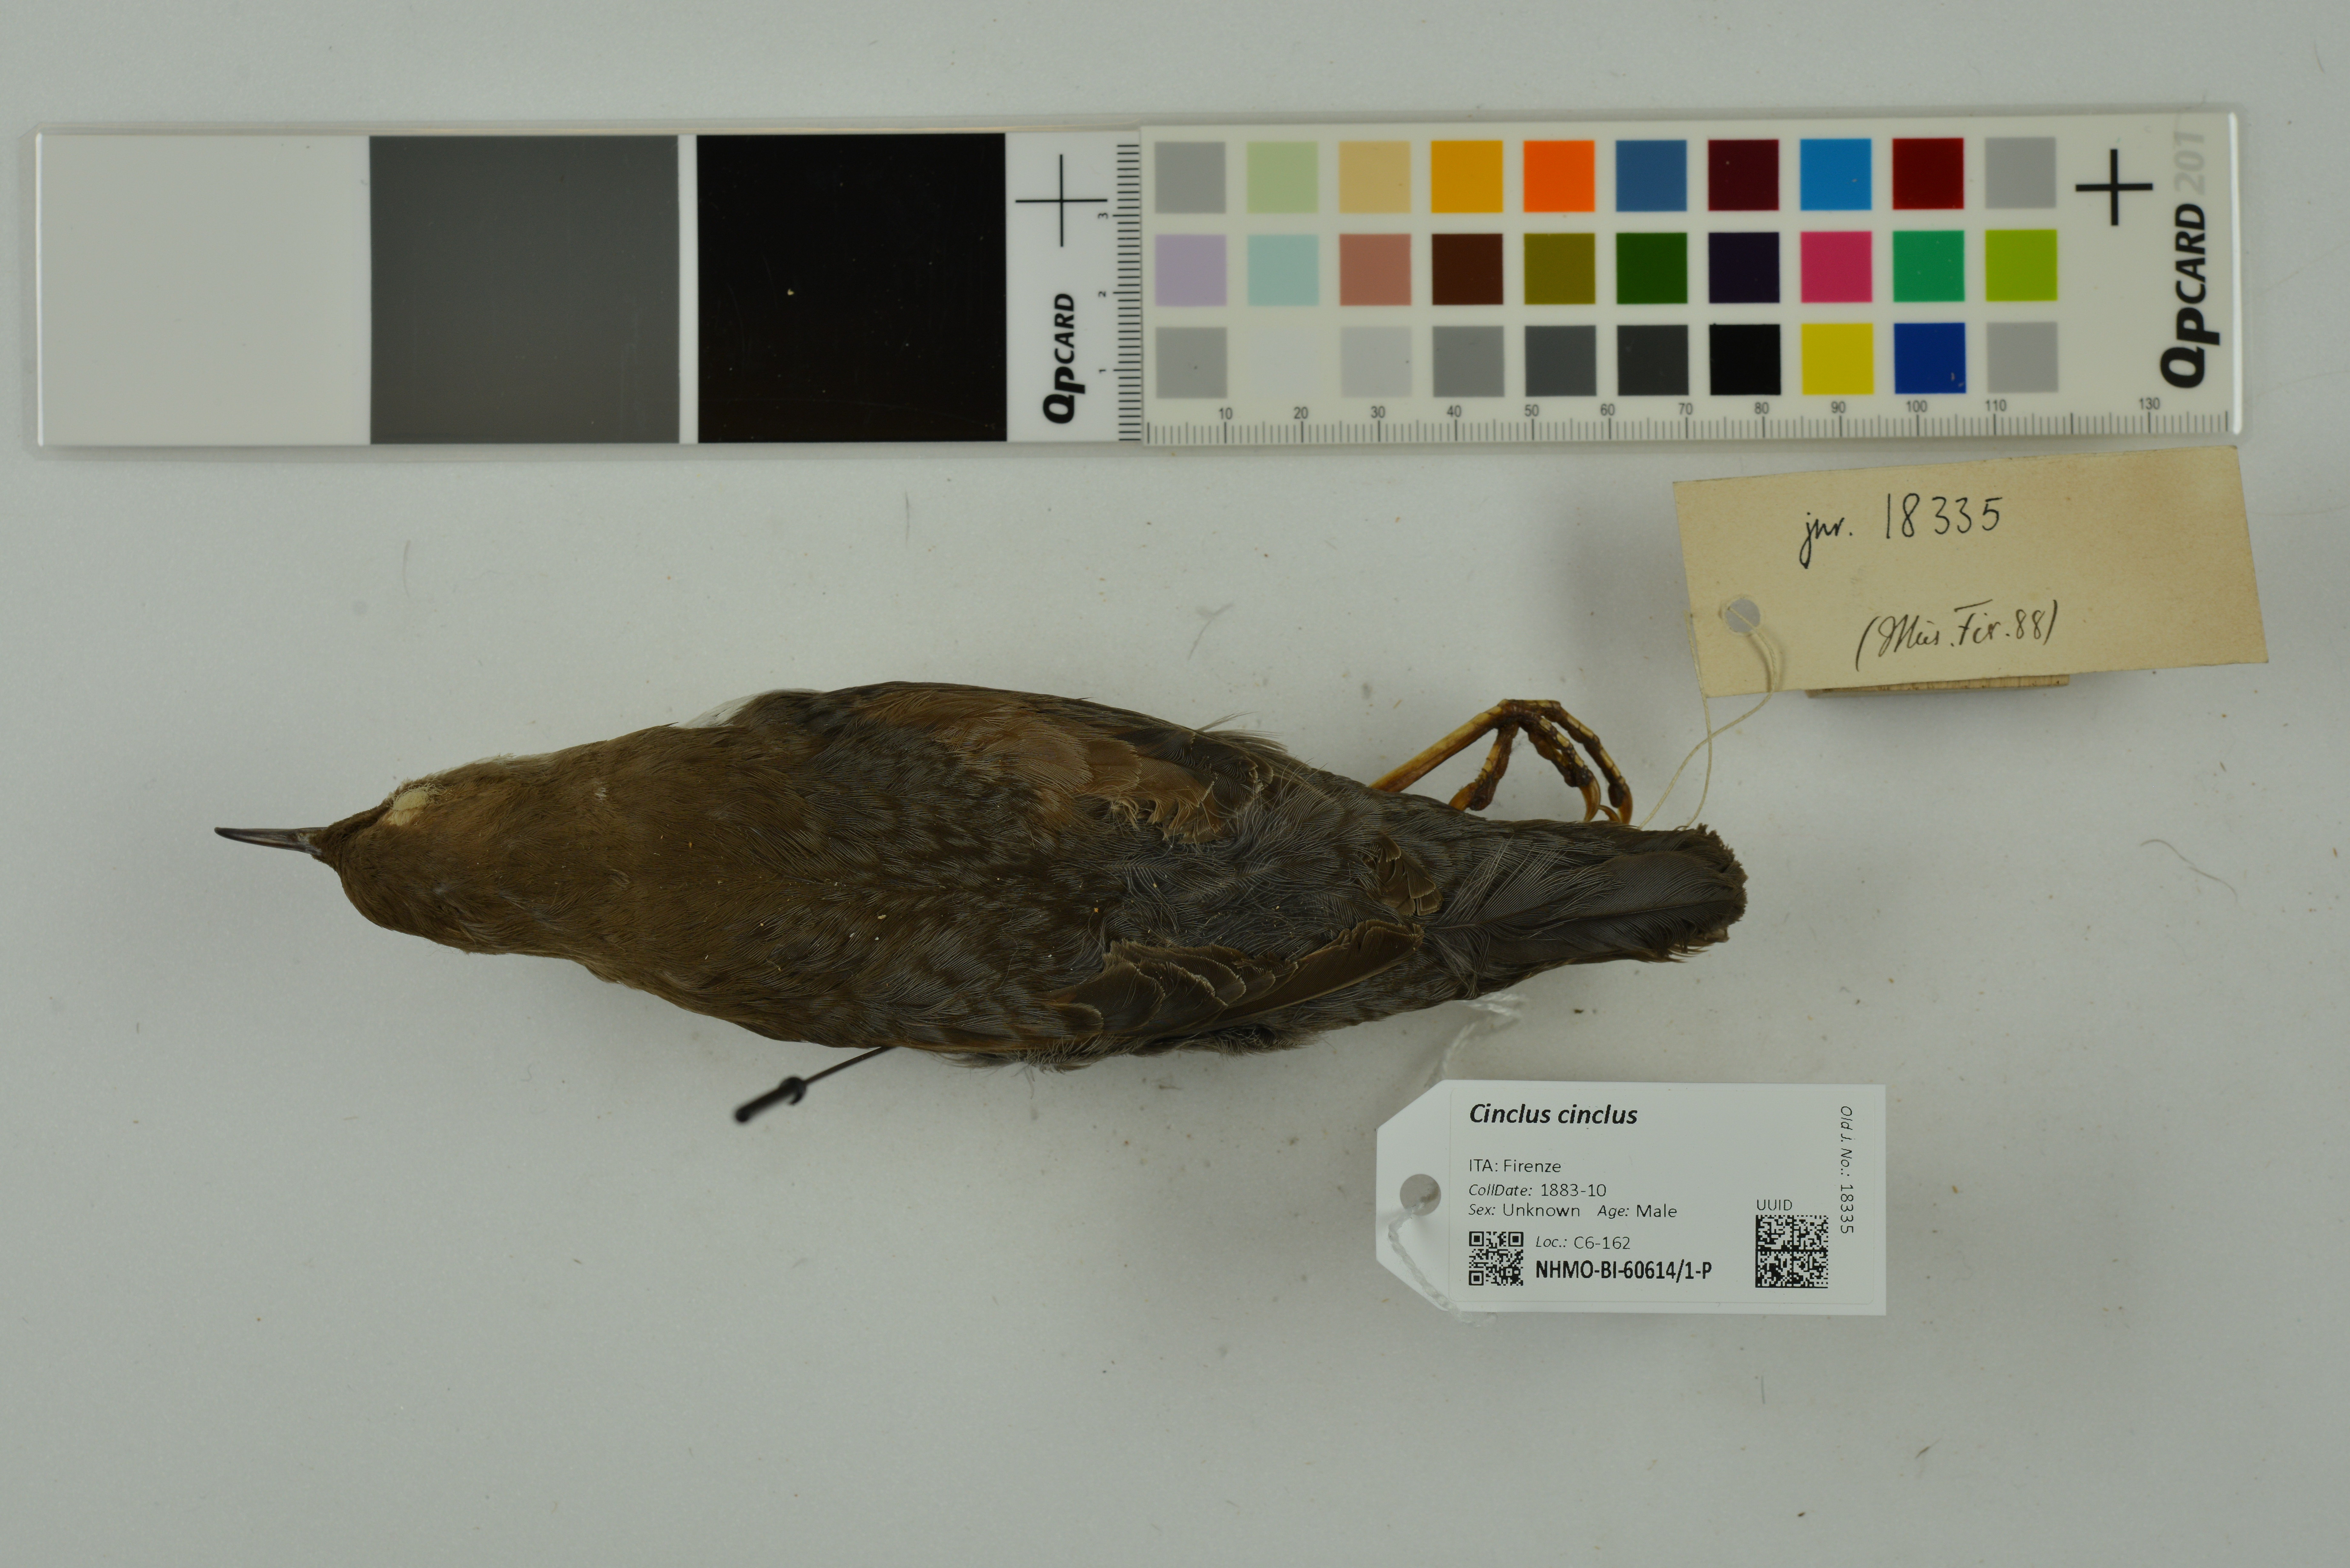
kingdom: Animalia
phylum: Chordata
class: Aves
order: Passeriformes
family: Cinclidae
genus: Cinclus
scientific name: Cinclus cinclus
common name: White-throated dipper
